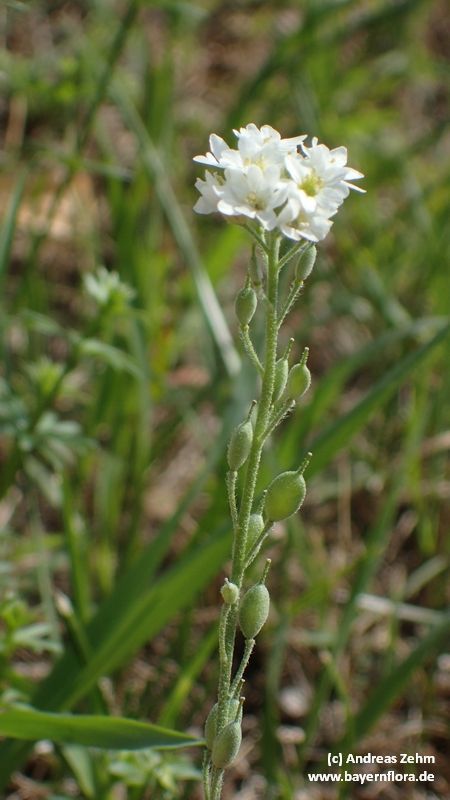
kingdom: Plantae
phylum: Tracheophyta
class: Magnoliopsida
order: Brassicales
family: Brassicaceae
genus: Berteroa
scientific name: Berteroa incana
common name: Hoary alison
